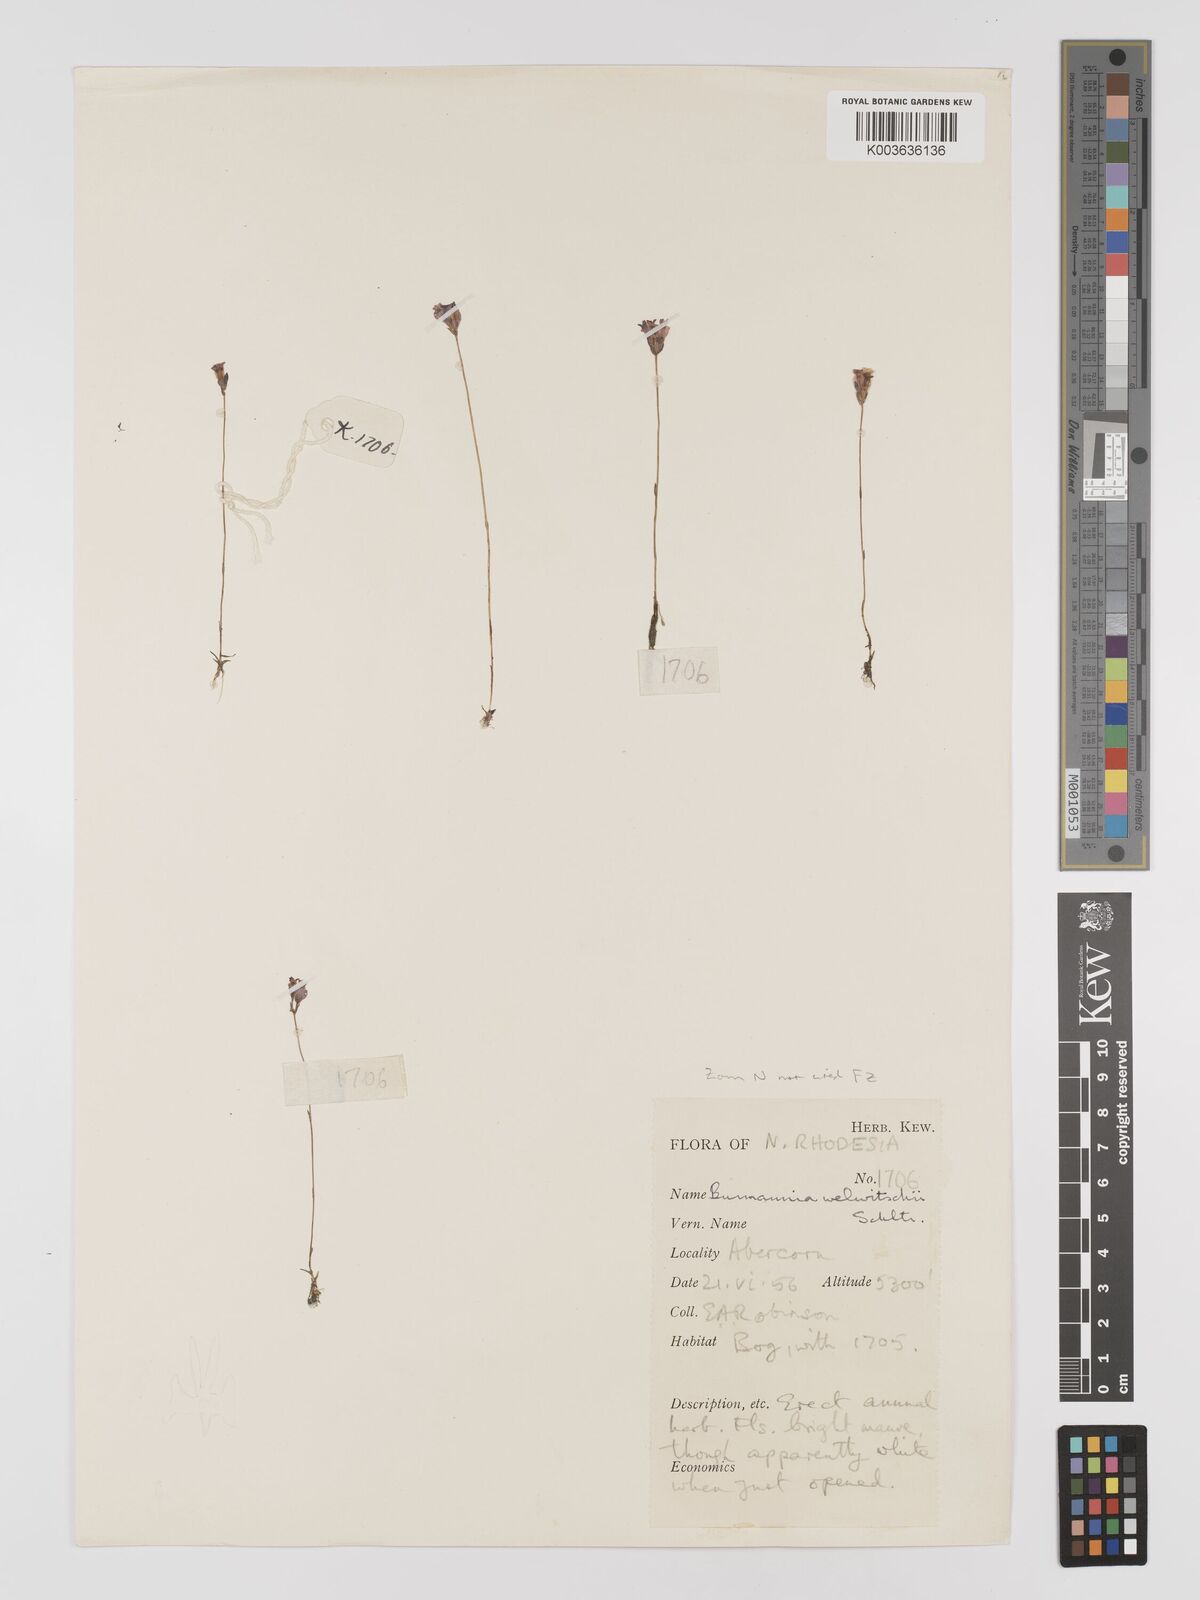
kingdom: Plantae
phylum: Tracheophyta
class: Liliopsida
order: Dioscoreales
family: Burmanniaceae
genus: Burmannia
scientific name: Burmannia madagascariensis
